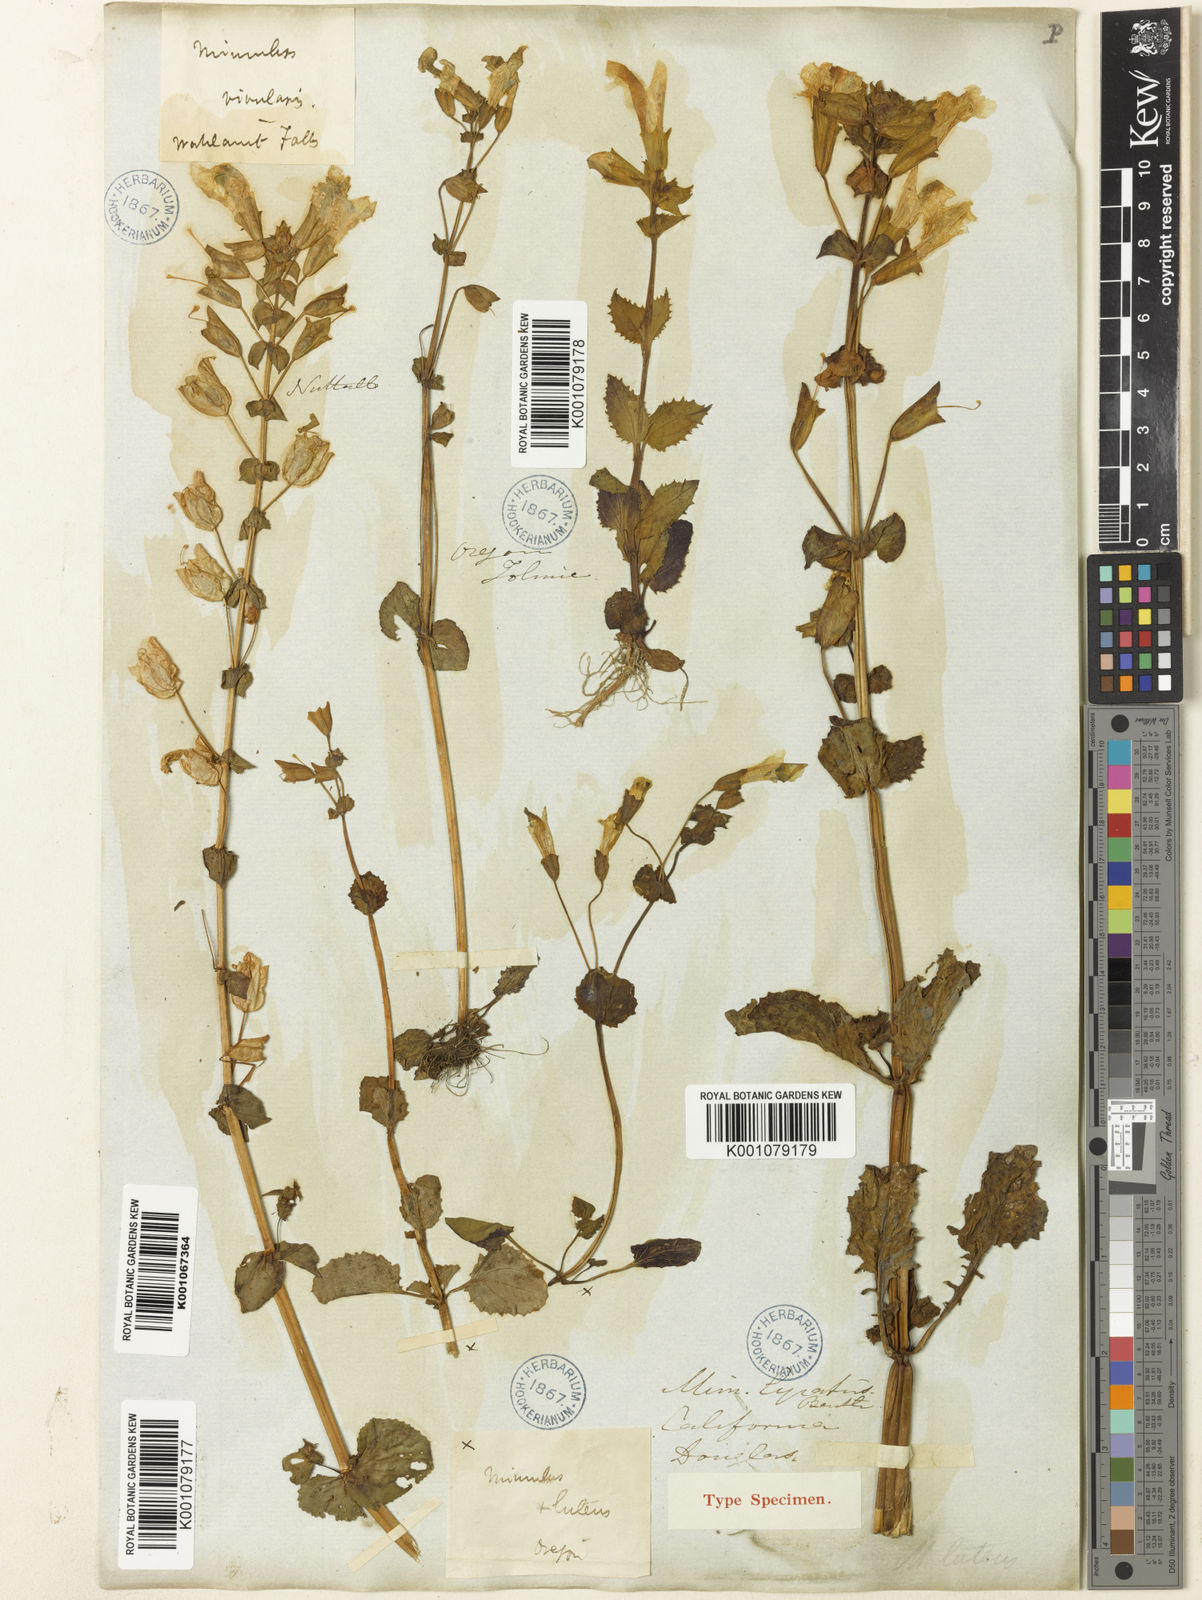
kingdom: Plantae
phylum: Tracheophyta
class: Magnoliopsida
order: Lamiales
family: Phrymaceae
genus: Erythranthe
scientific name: Erythranthe guttata
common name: Monkeyflower
